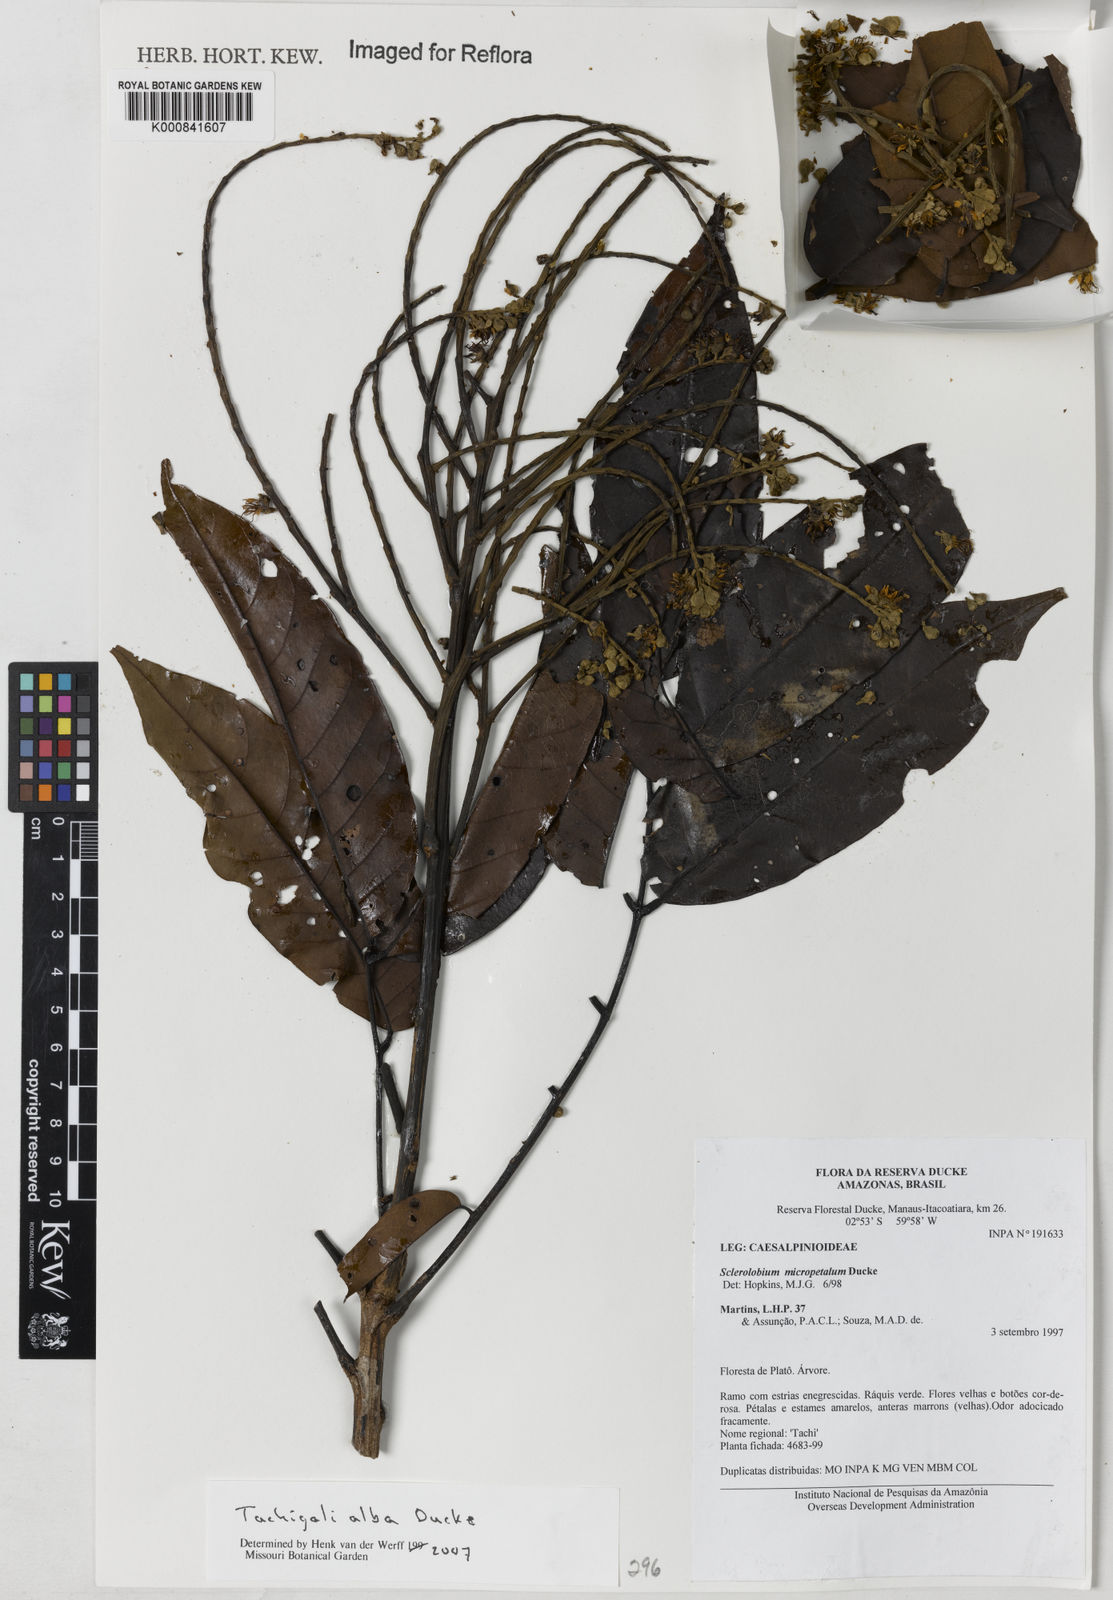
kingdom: Plantae
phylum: Tracheophyta
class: Magnoliopsida
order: Fabales
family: Fabaceae
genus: Tachigali
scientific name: Tachigali alba
